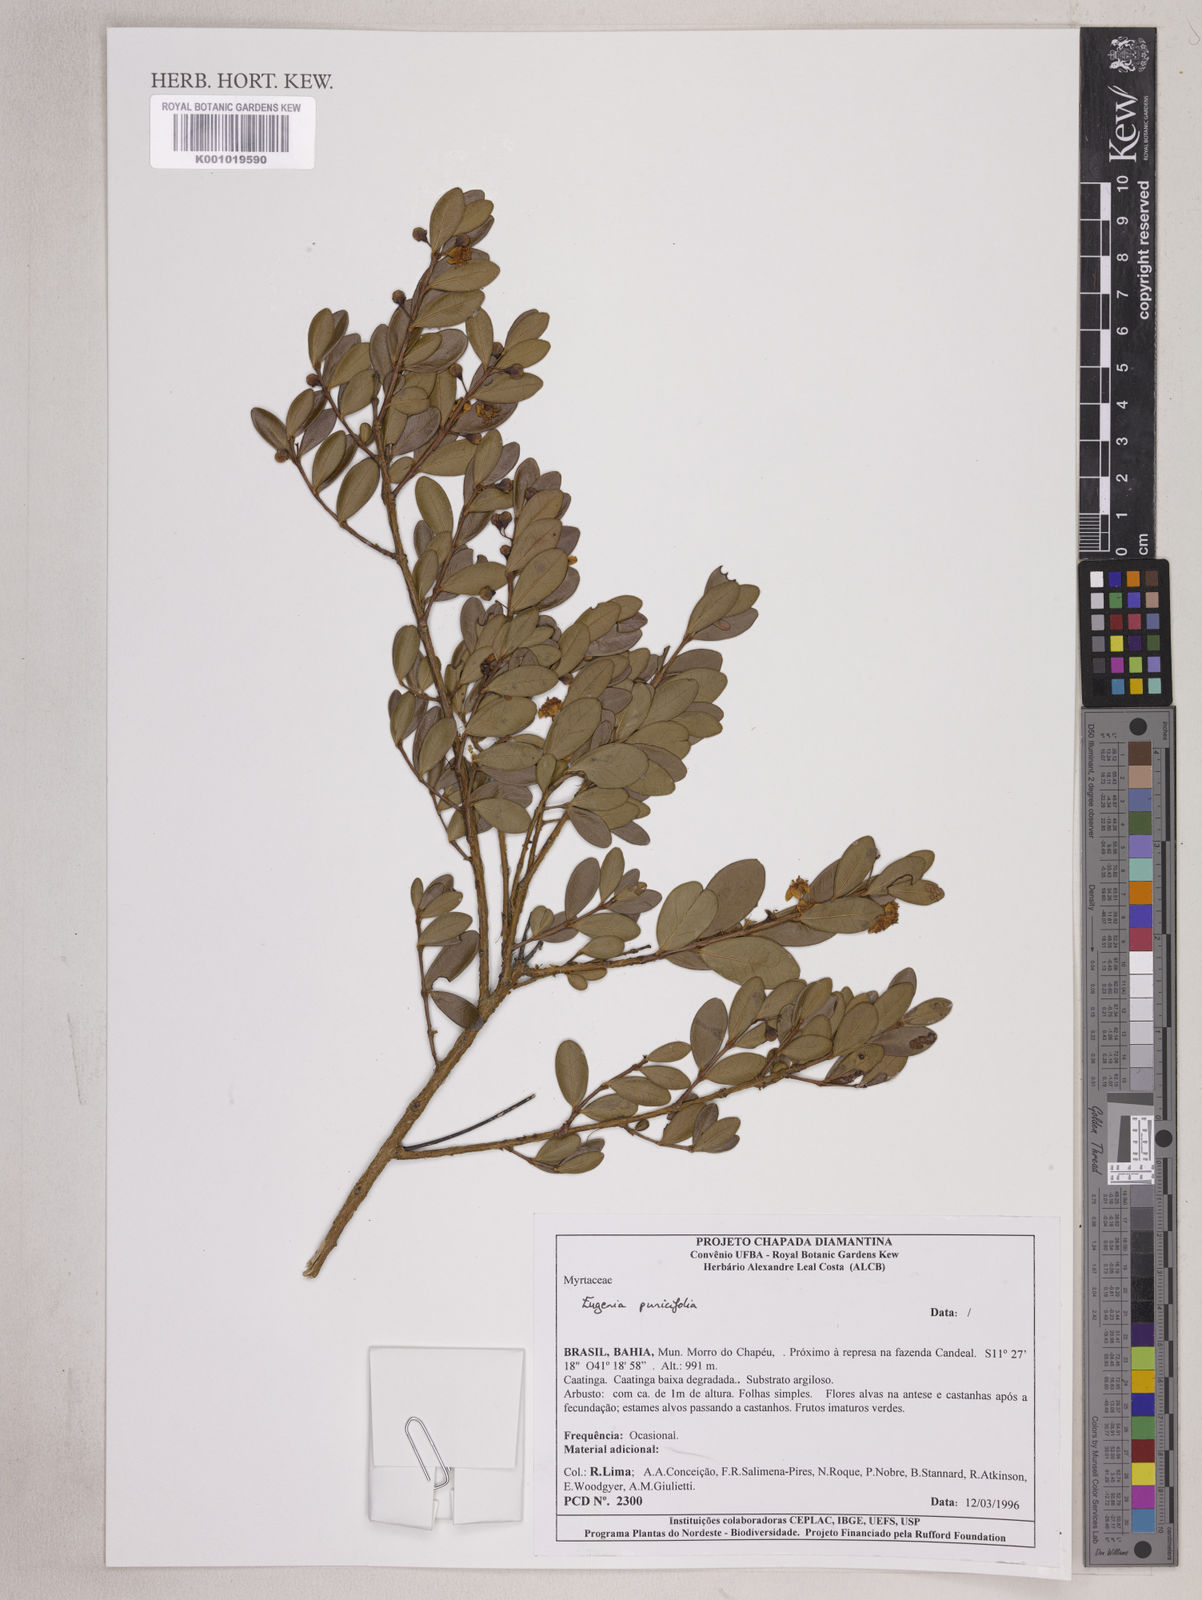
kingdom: Plantae
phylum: Tracheophyta
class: Magnoliopsida
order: Myrtales
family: Myrtaceae
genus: Eugenia
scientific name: Eugenia punicifolia
